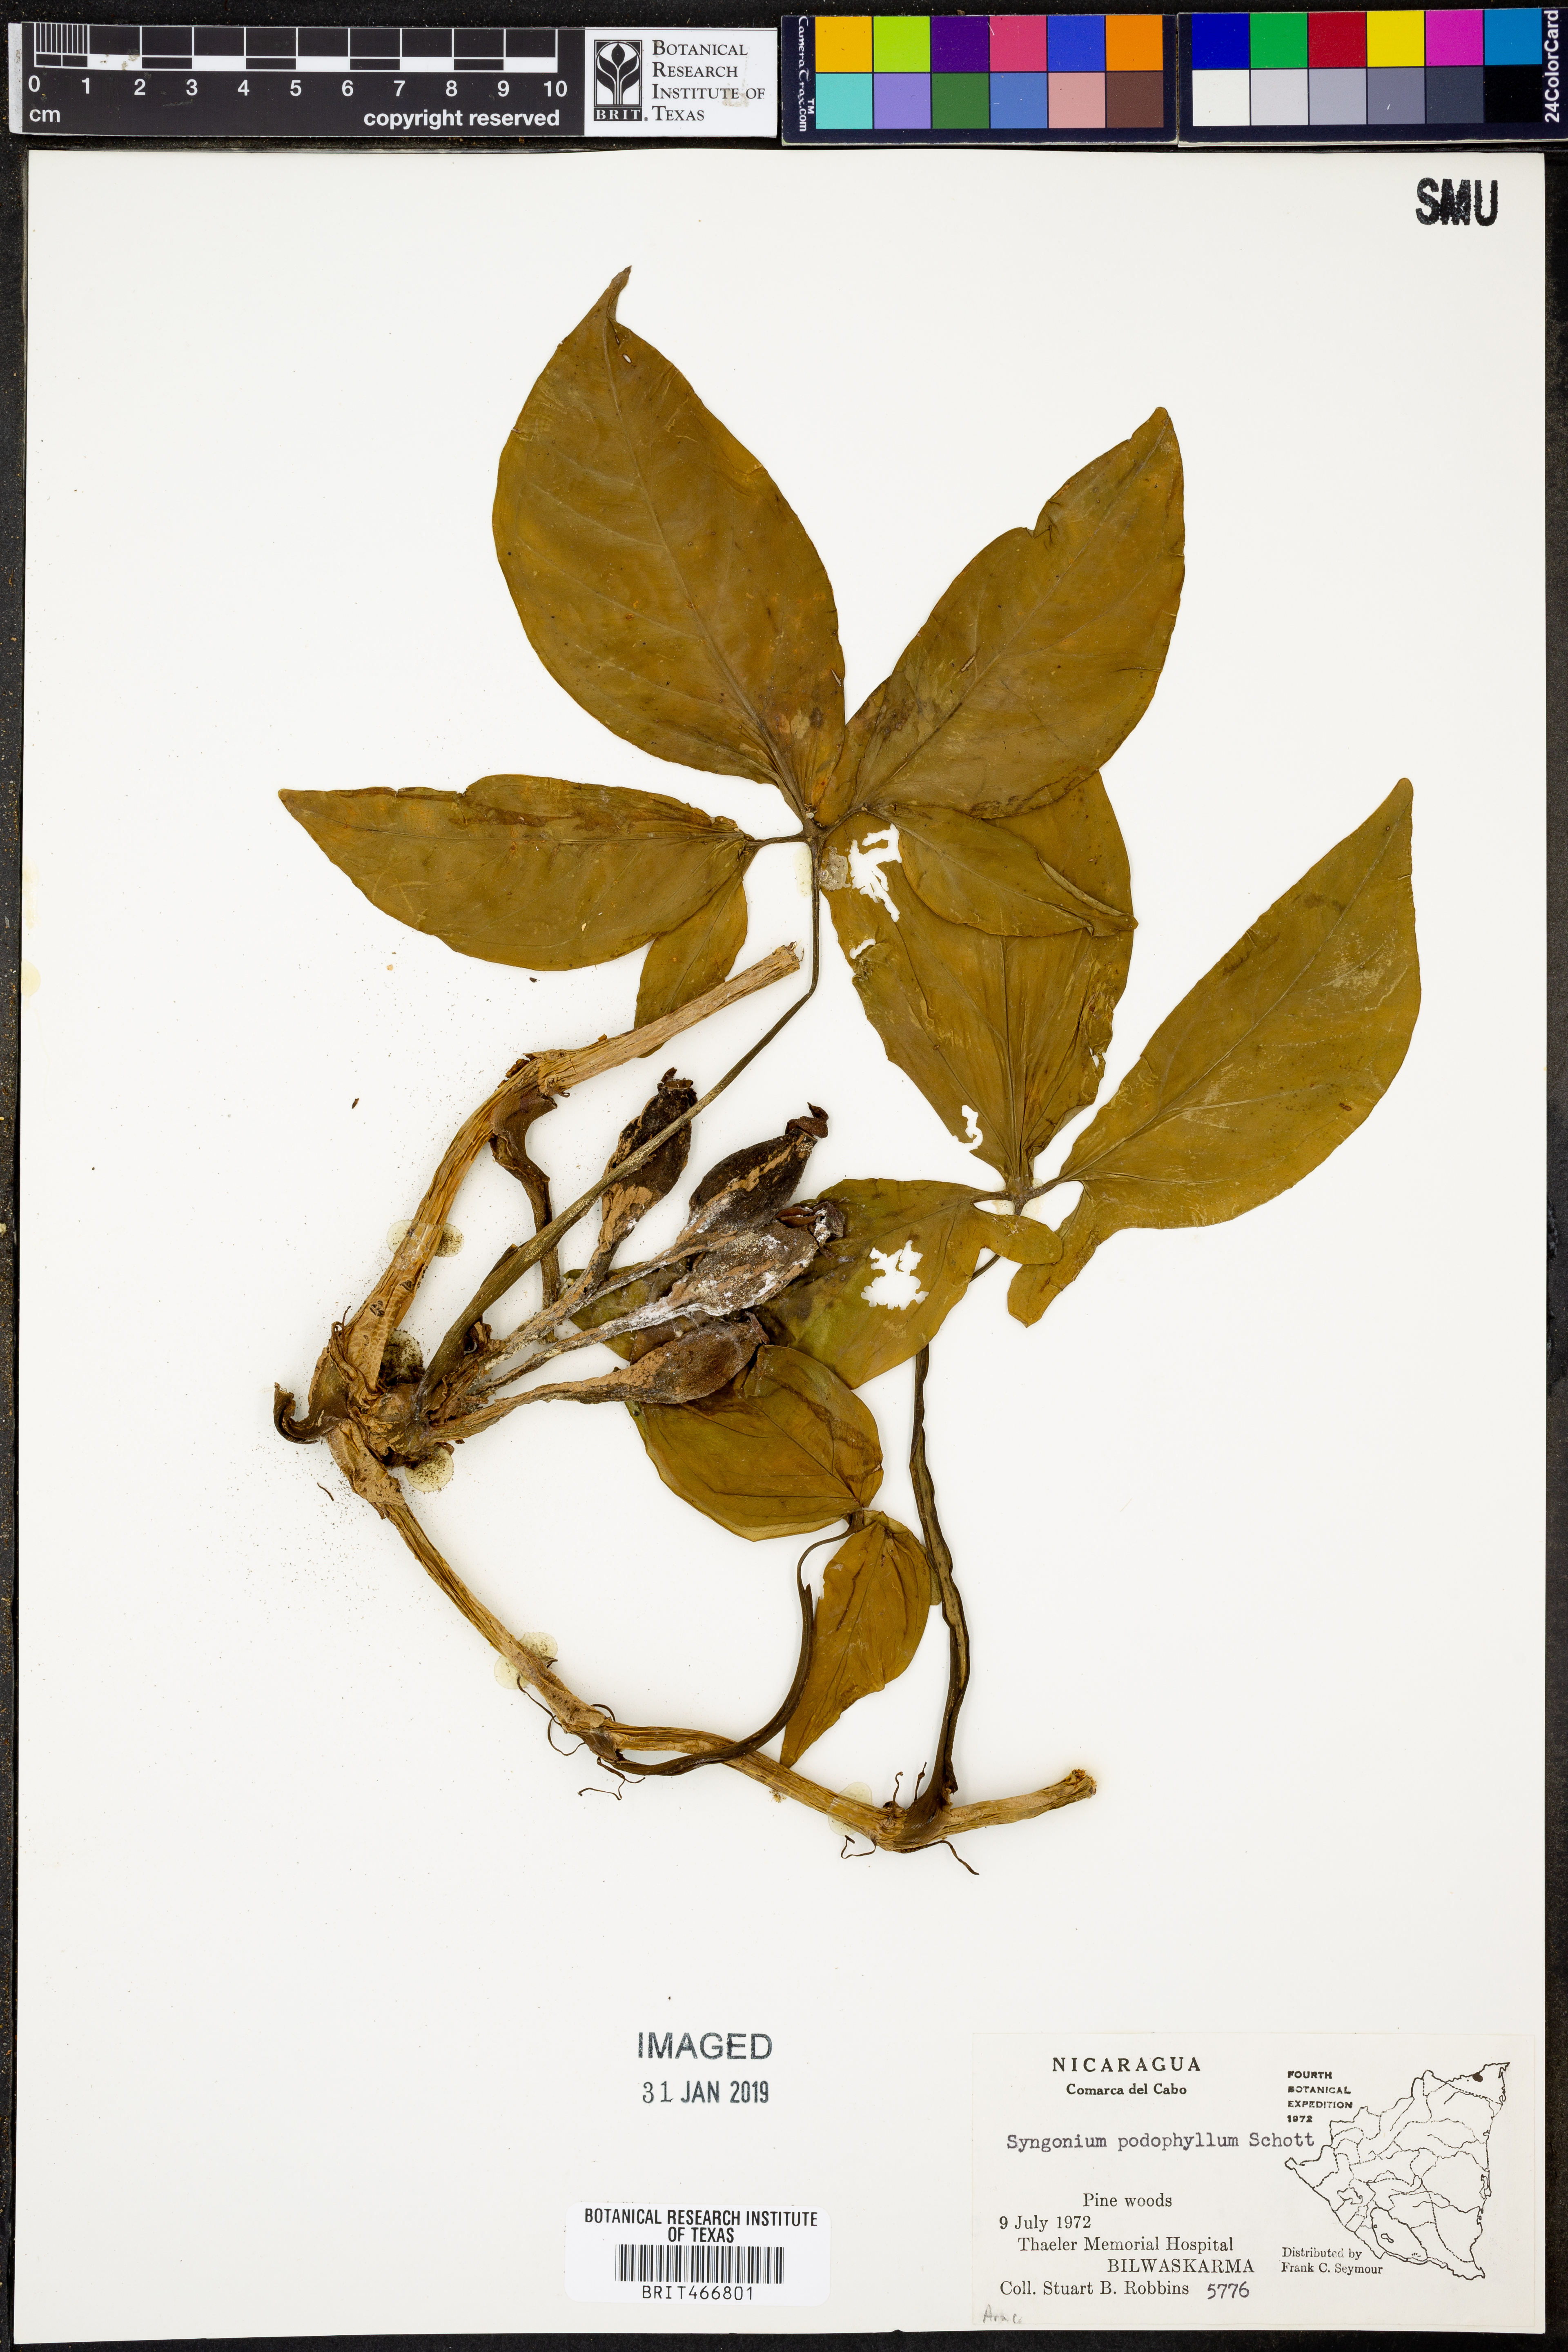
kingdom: Plantae
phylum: Tracheophyta
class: Liliopsida
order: Alismatales
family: Araceae
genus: Syngonium
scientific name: Syngonium podophyllum
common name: American evergreen
